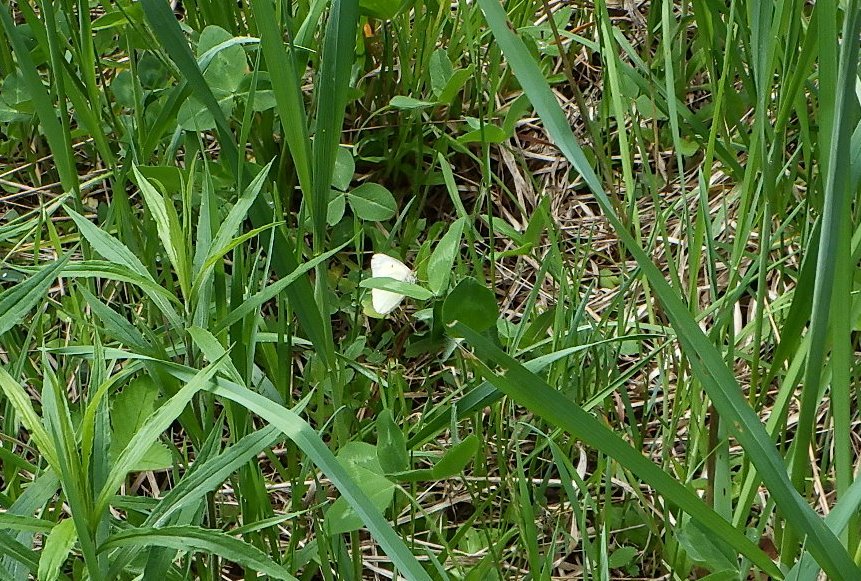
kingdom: Animalia
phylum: Arthropoda
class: Insecta
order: Lepidoptera
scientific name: Lepidoptera
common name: Butterflies
